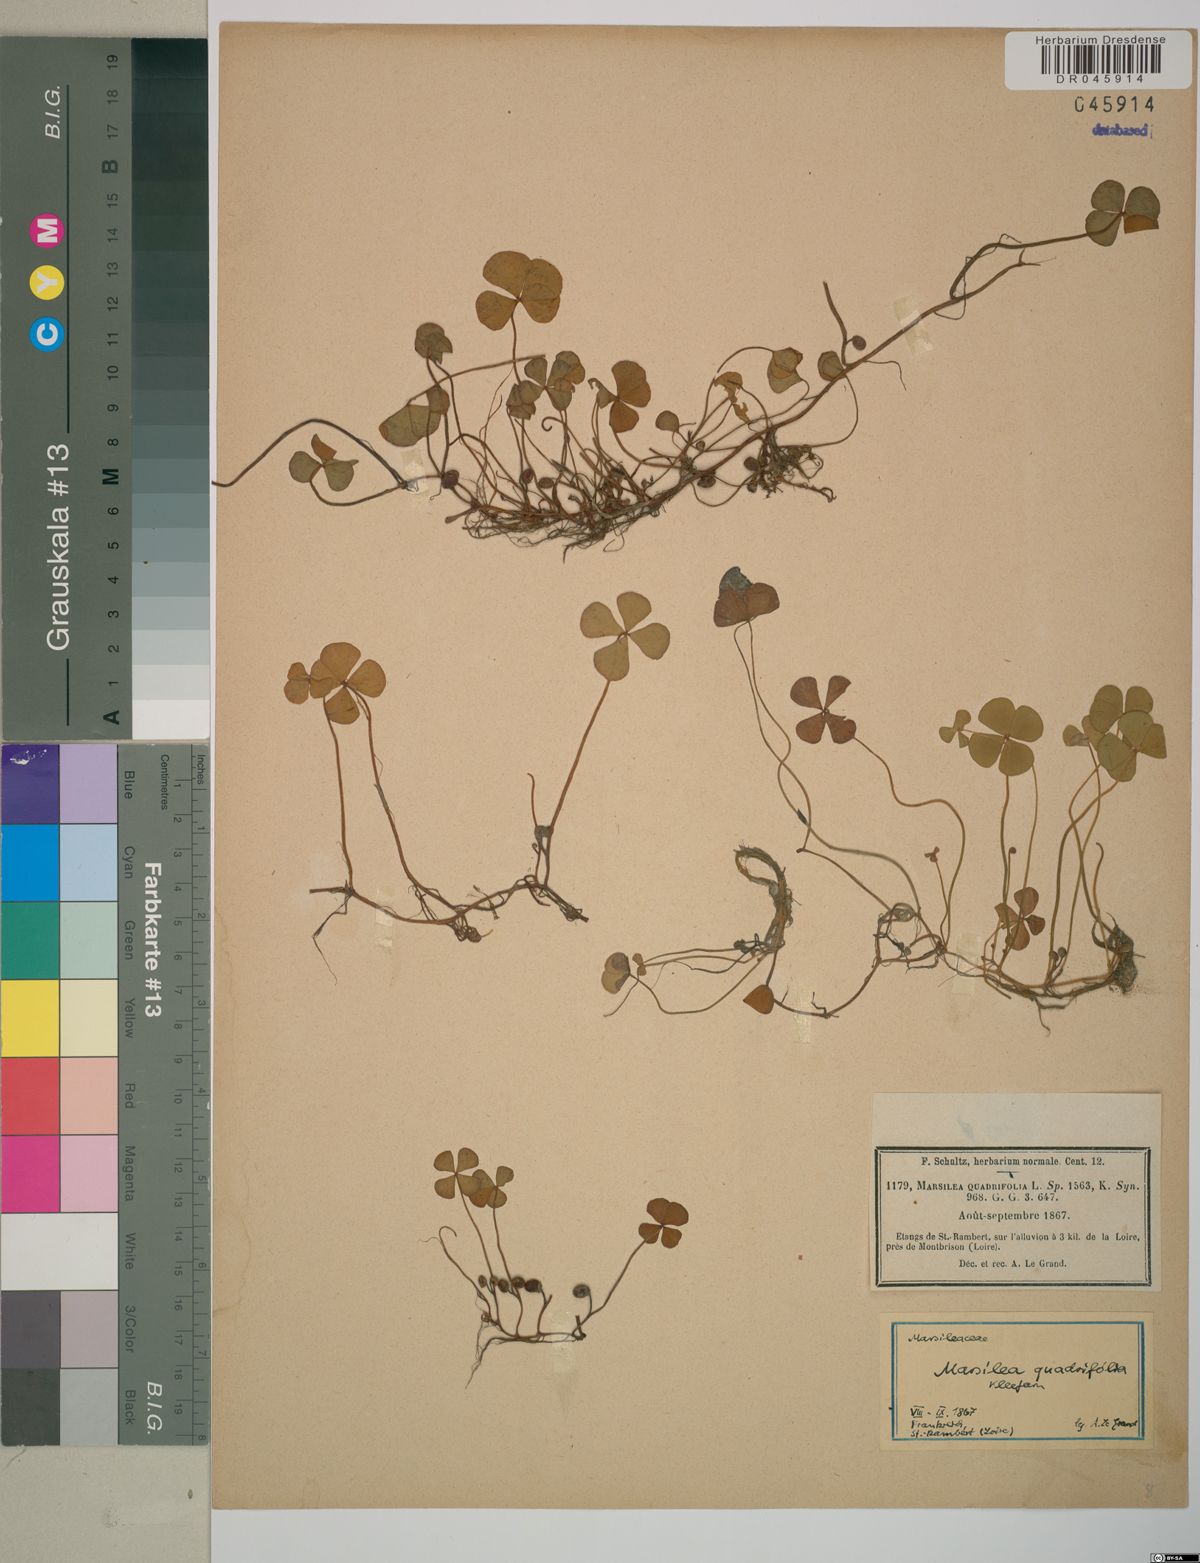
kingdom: Plantae
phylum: Tracheophyta
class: Polypodiopsida
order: Salviniales
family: Marsileaceae
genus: Marsilea
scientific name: Marsilea quadrifolia
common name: Water shamrock
